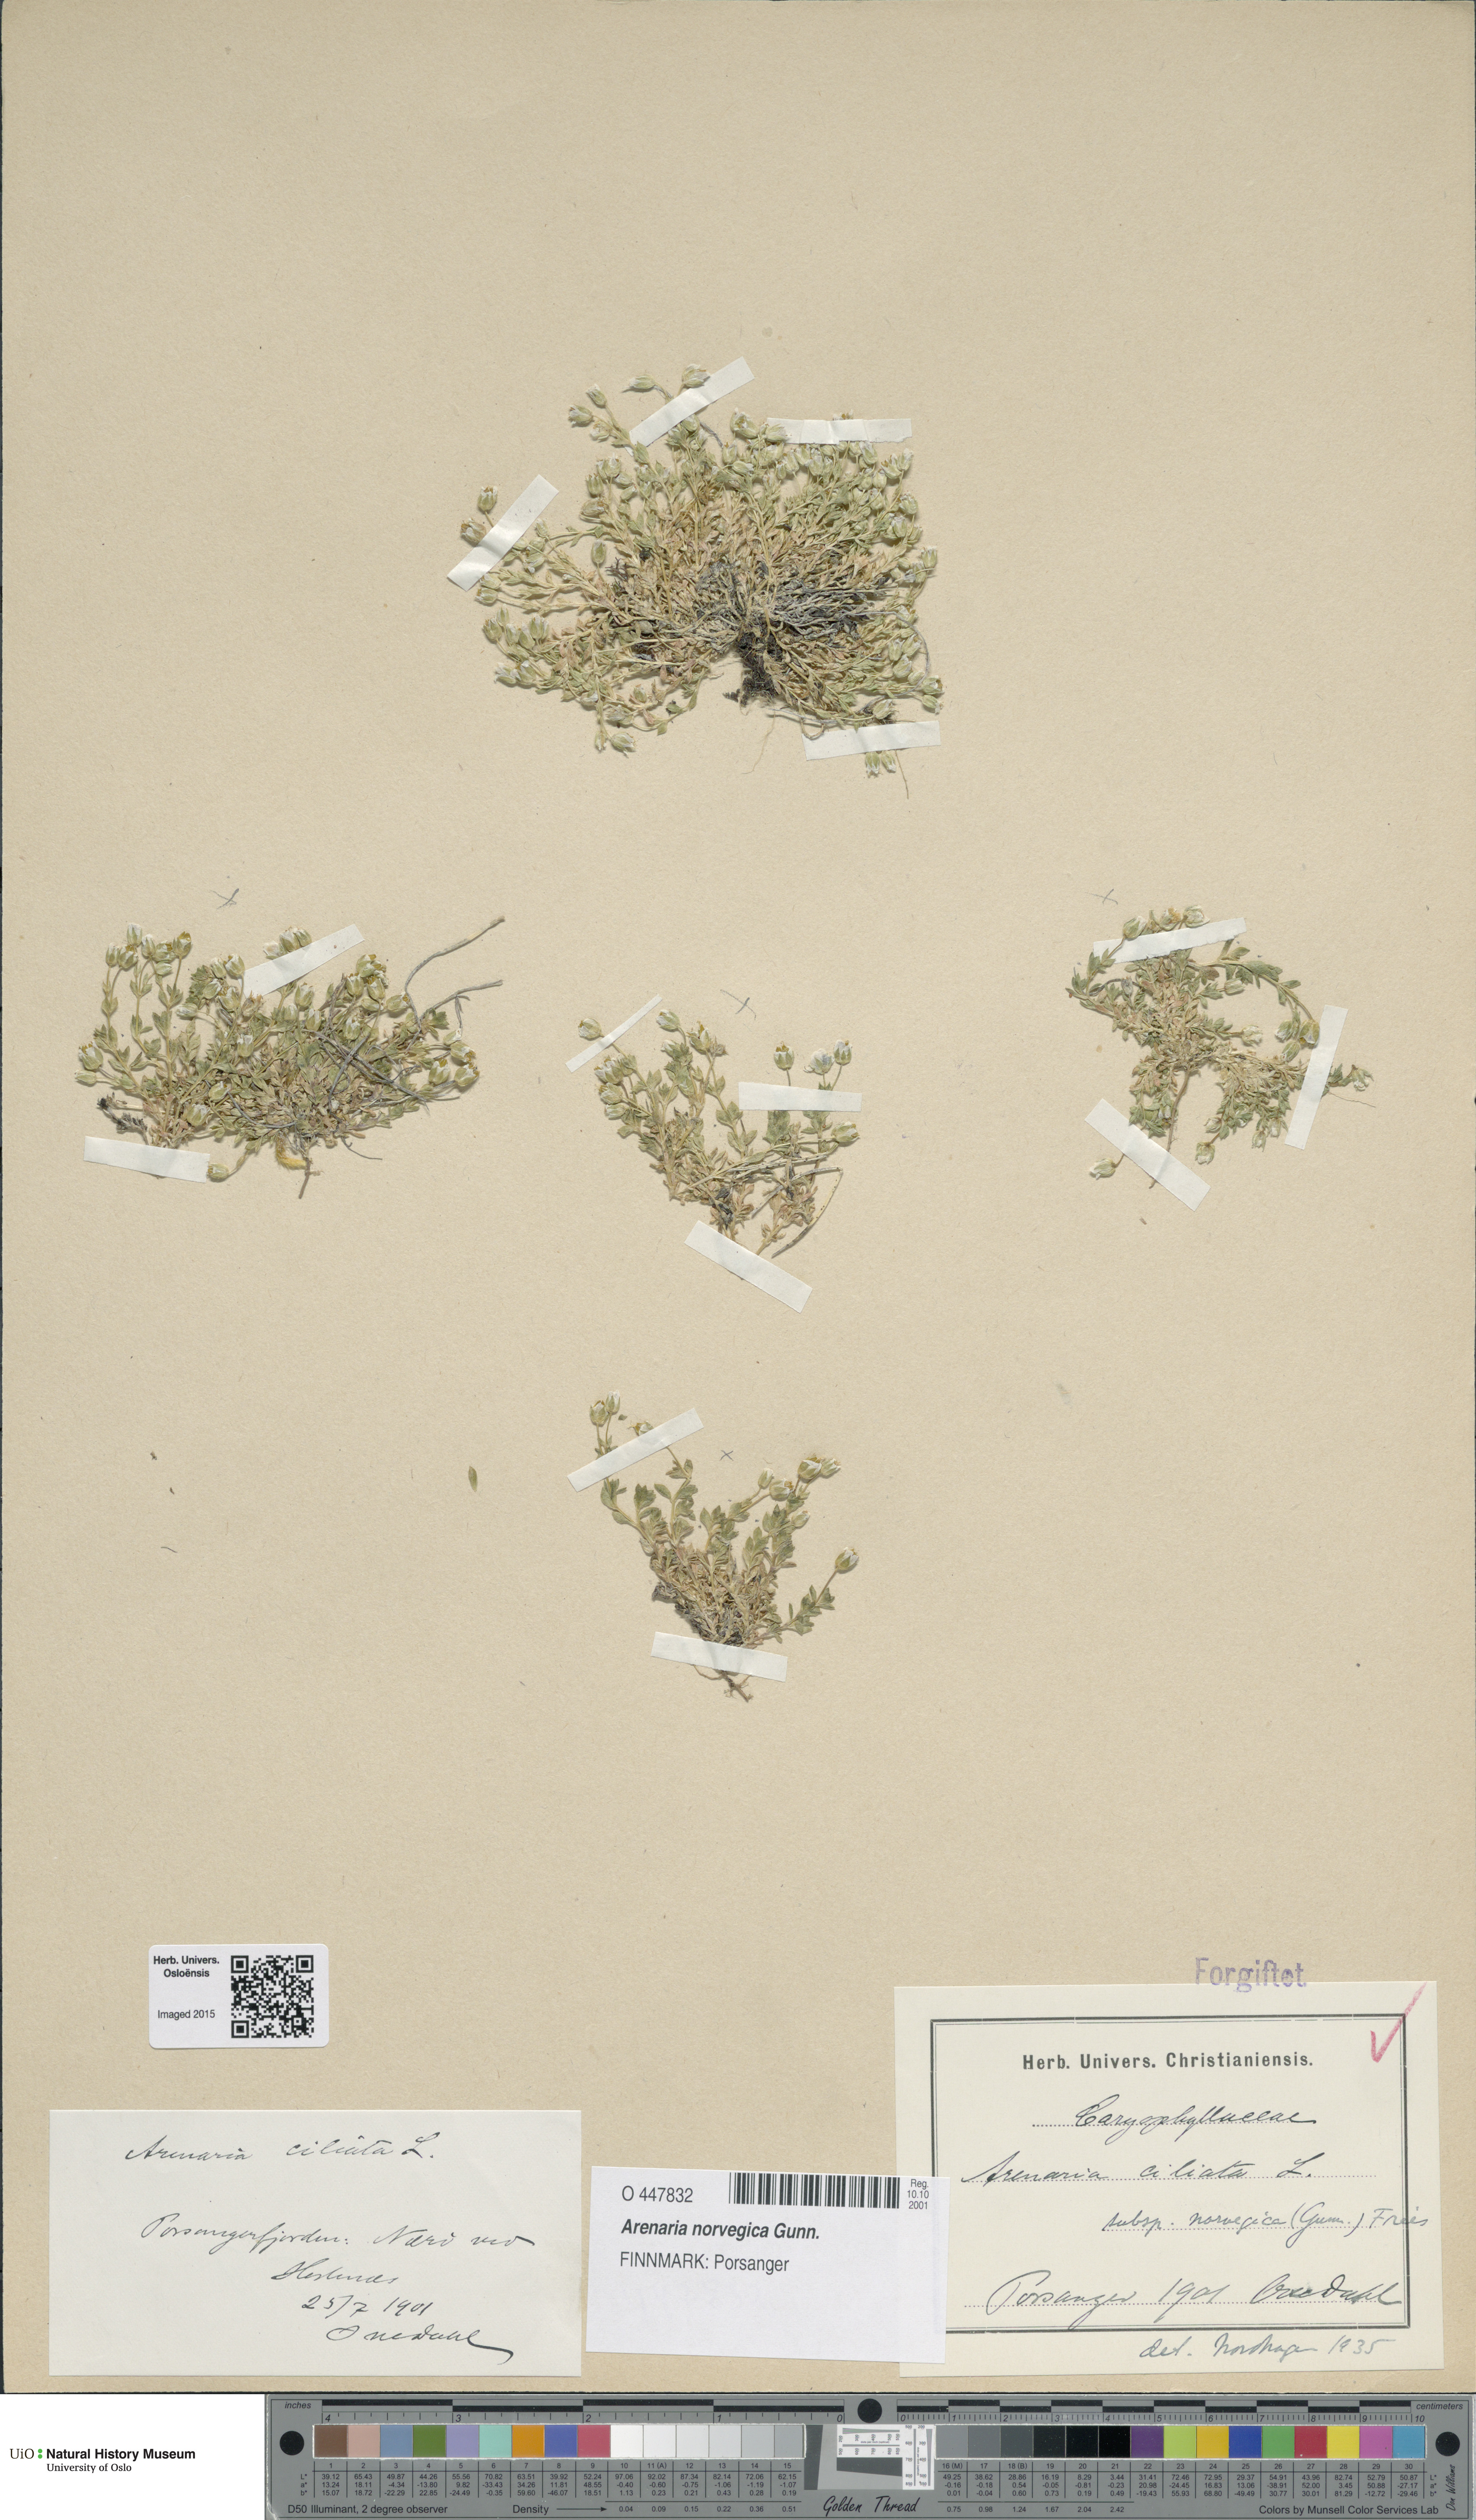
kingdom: Plantae
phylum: Tracheophyta
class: Magnoliopsida
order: Caryophyllales
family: Caryophyllaceae
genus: Arenaria
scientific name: Arenaria norvegica
